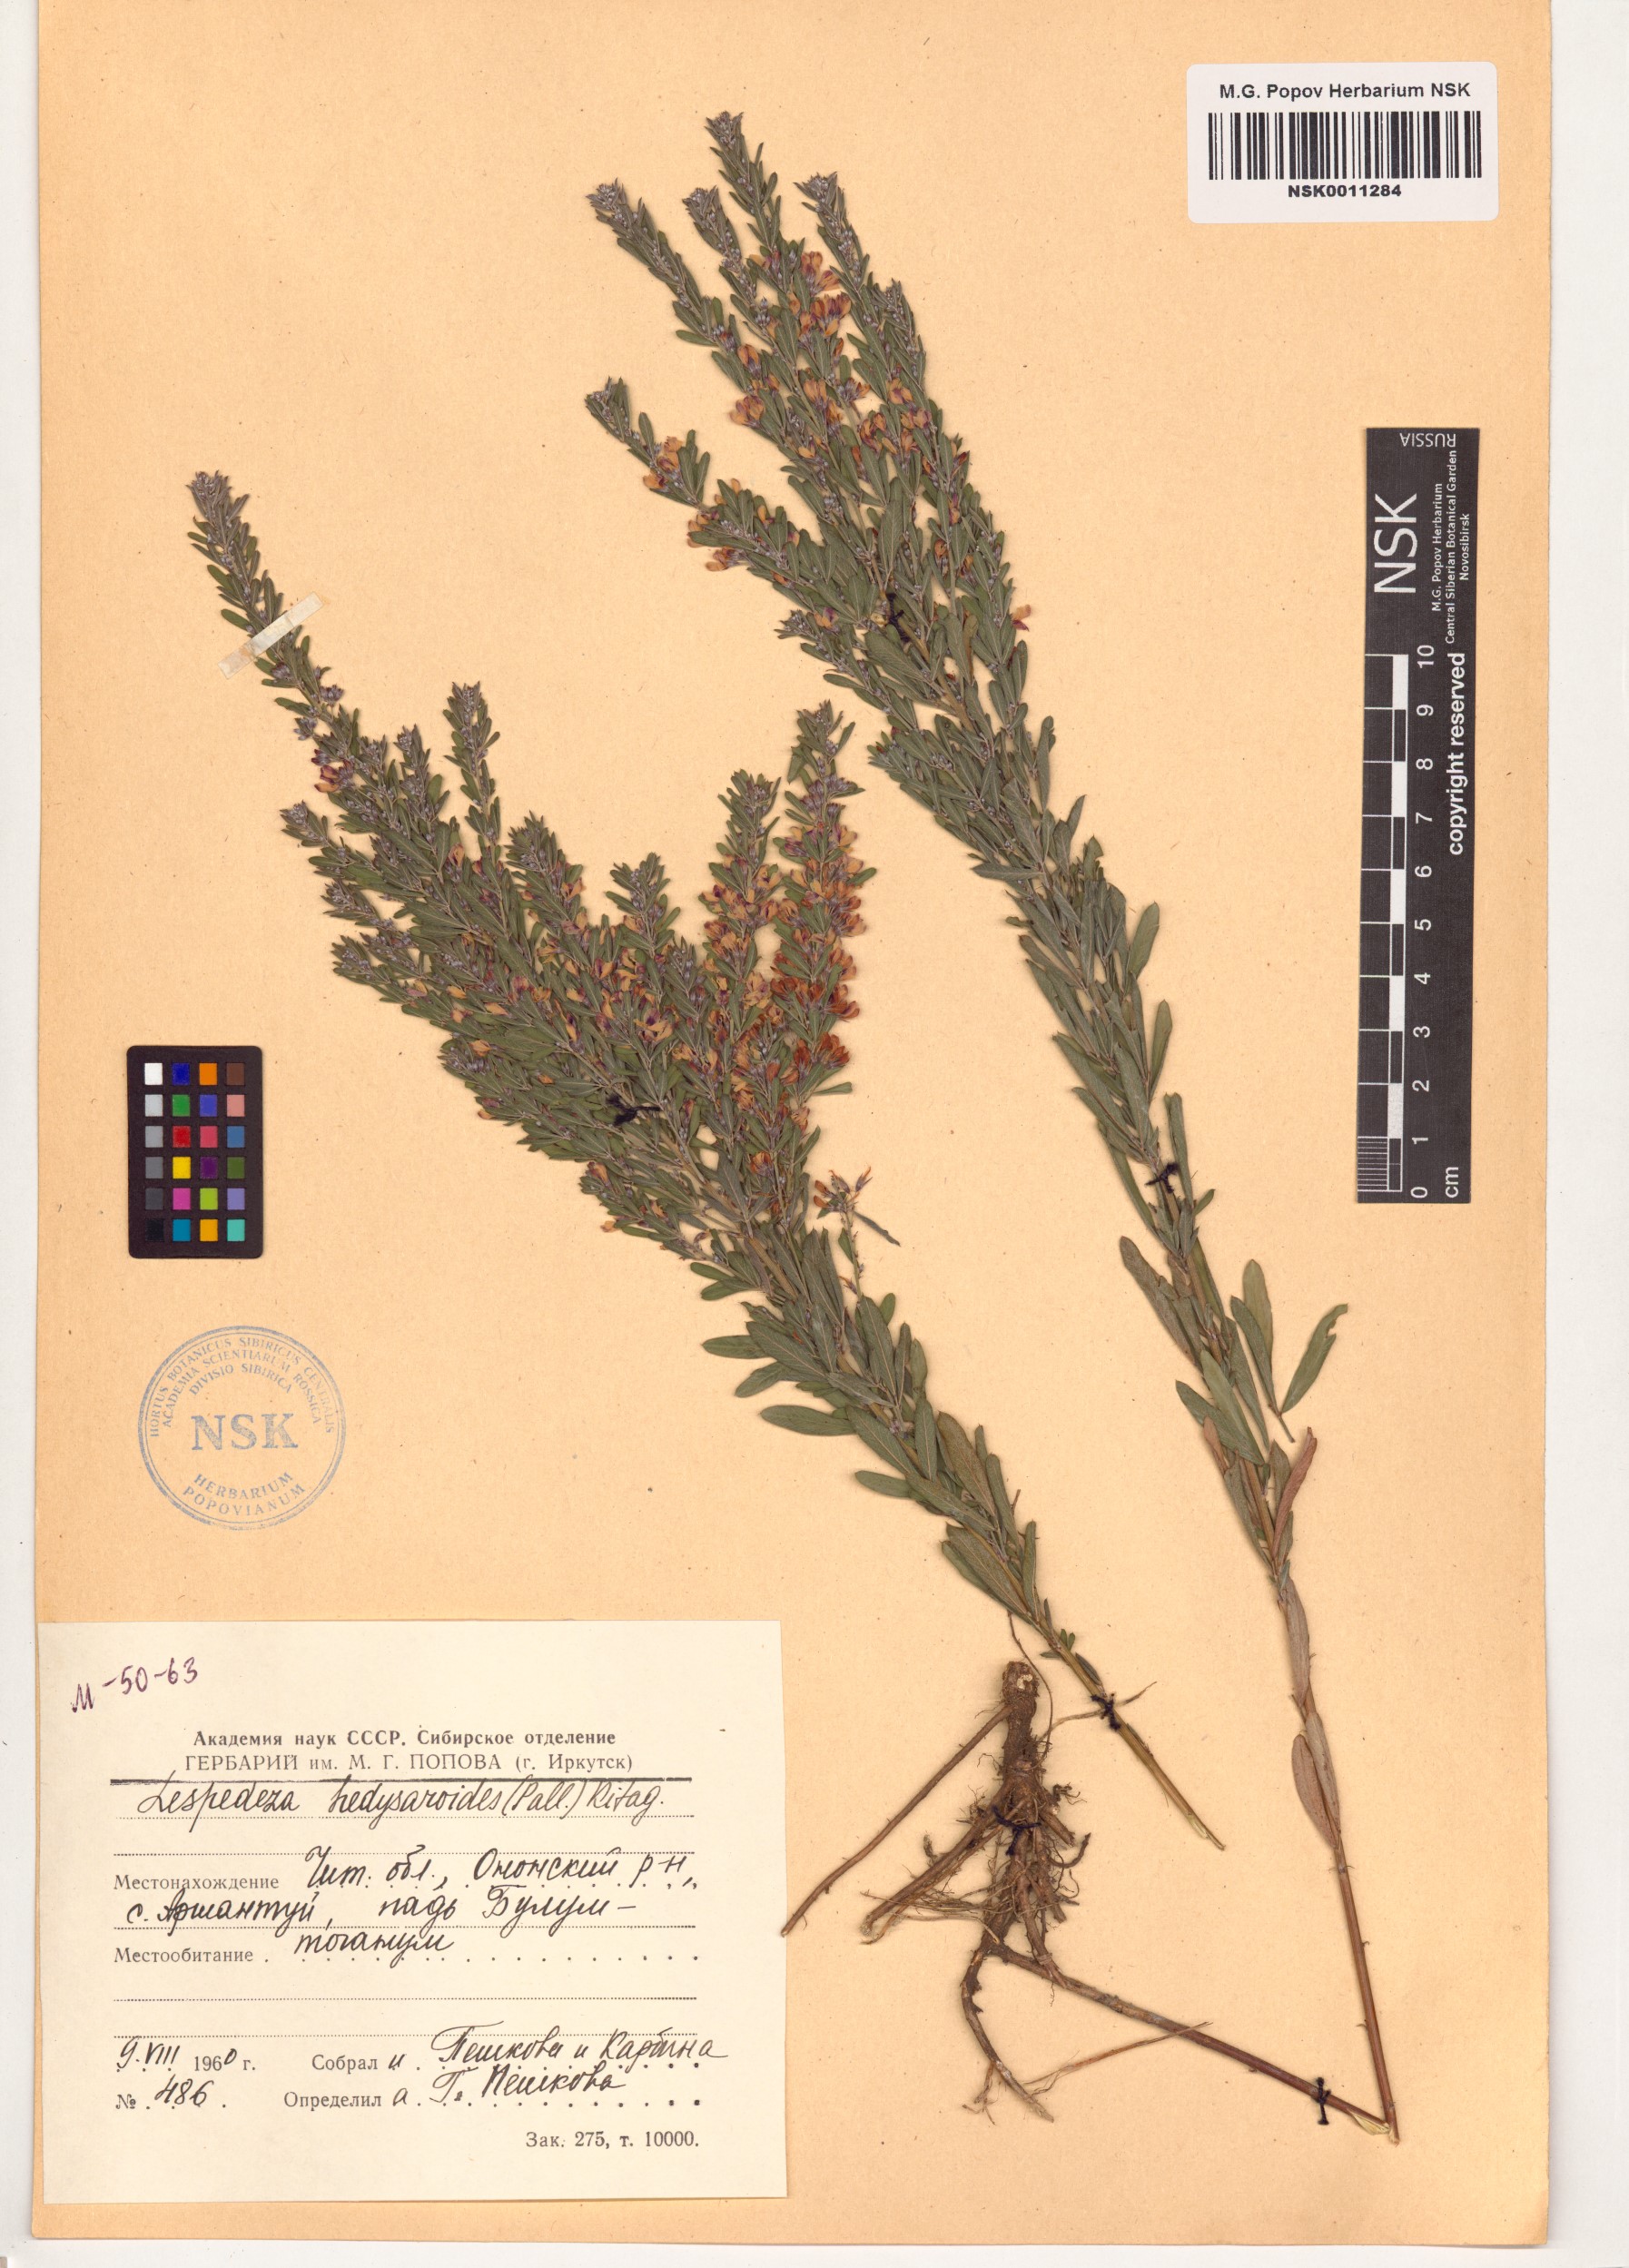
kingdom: Plantae
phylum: Tracheophyta
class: Magnoliopsida
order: Fabales
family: Fabaceae
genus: Lespedeza
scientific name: Lespedeza juncea
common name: Siberian lespedeza
